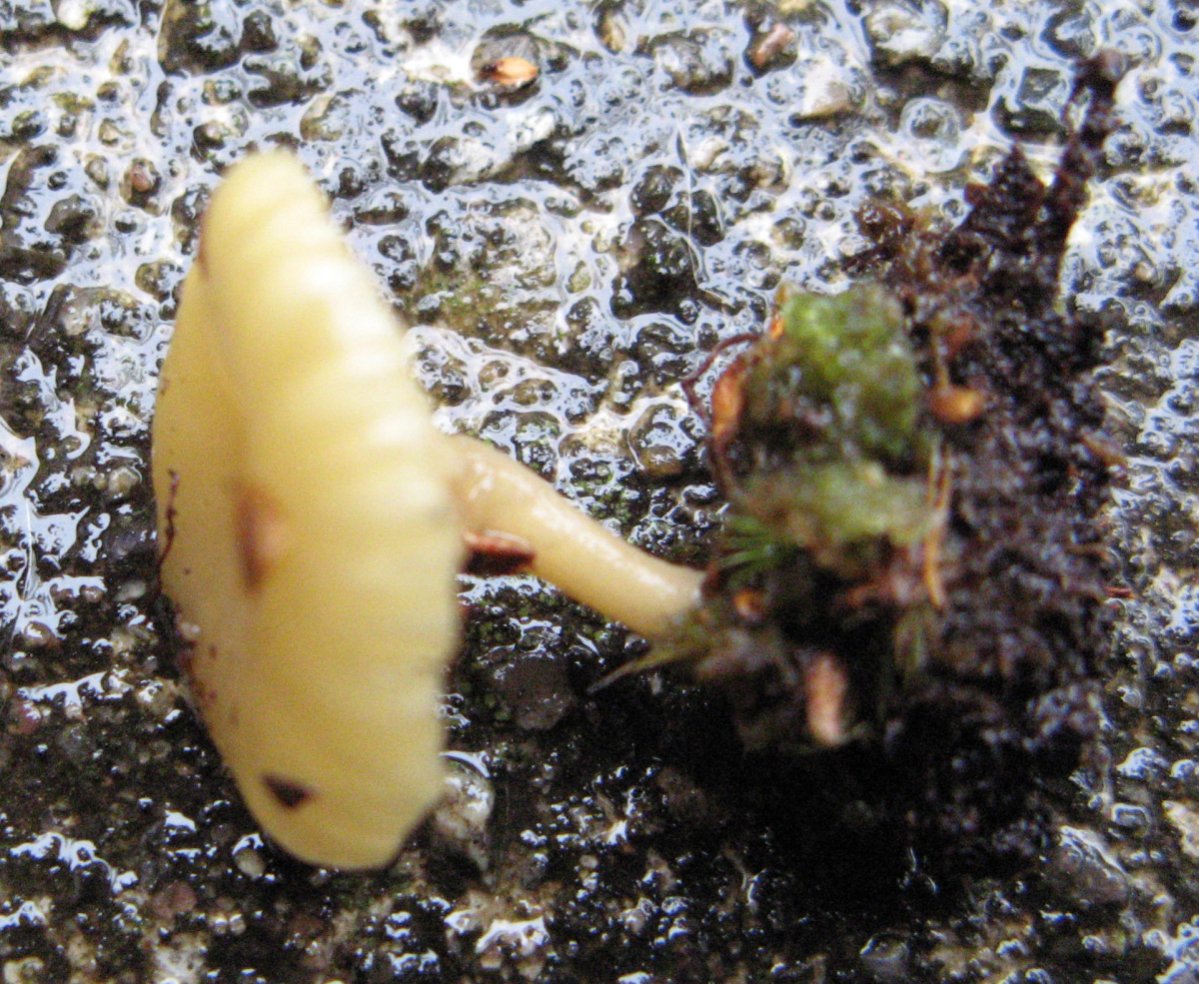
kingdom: Fungi
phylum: Basidiomycota
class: Agaricomycetes
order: Agaricales
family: Hygrophoraceae
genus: Lichenomphalia
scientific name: Lichenomphalia umbellifera
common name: tørve-lavhat
